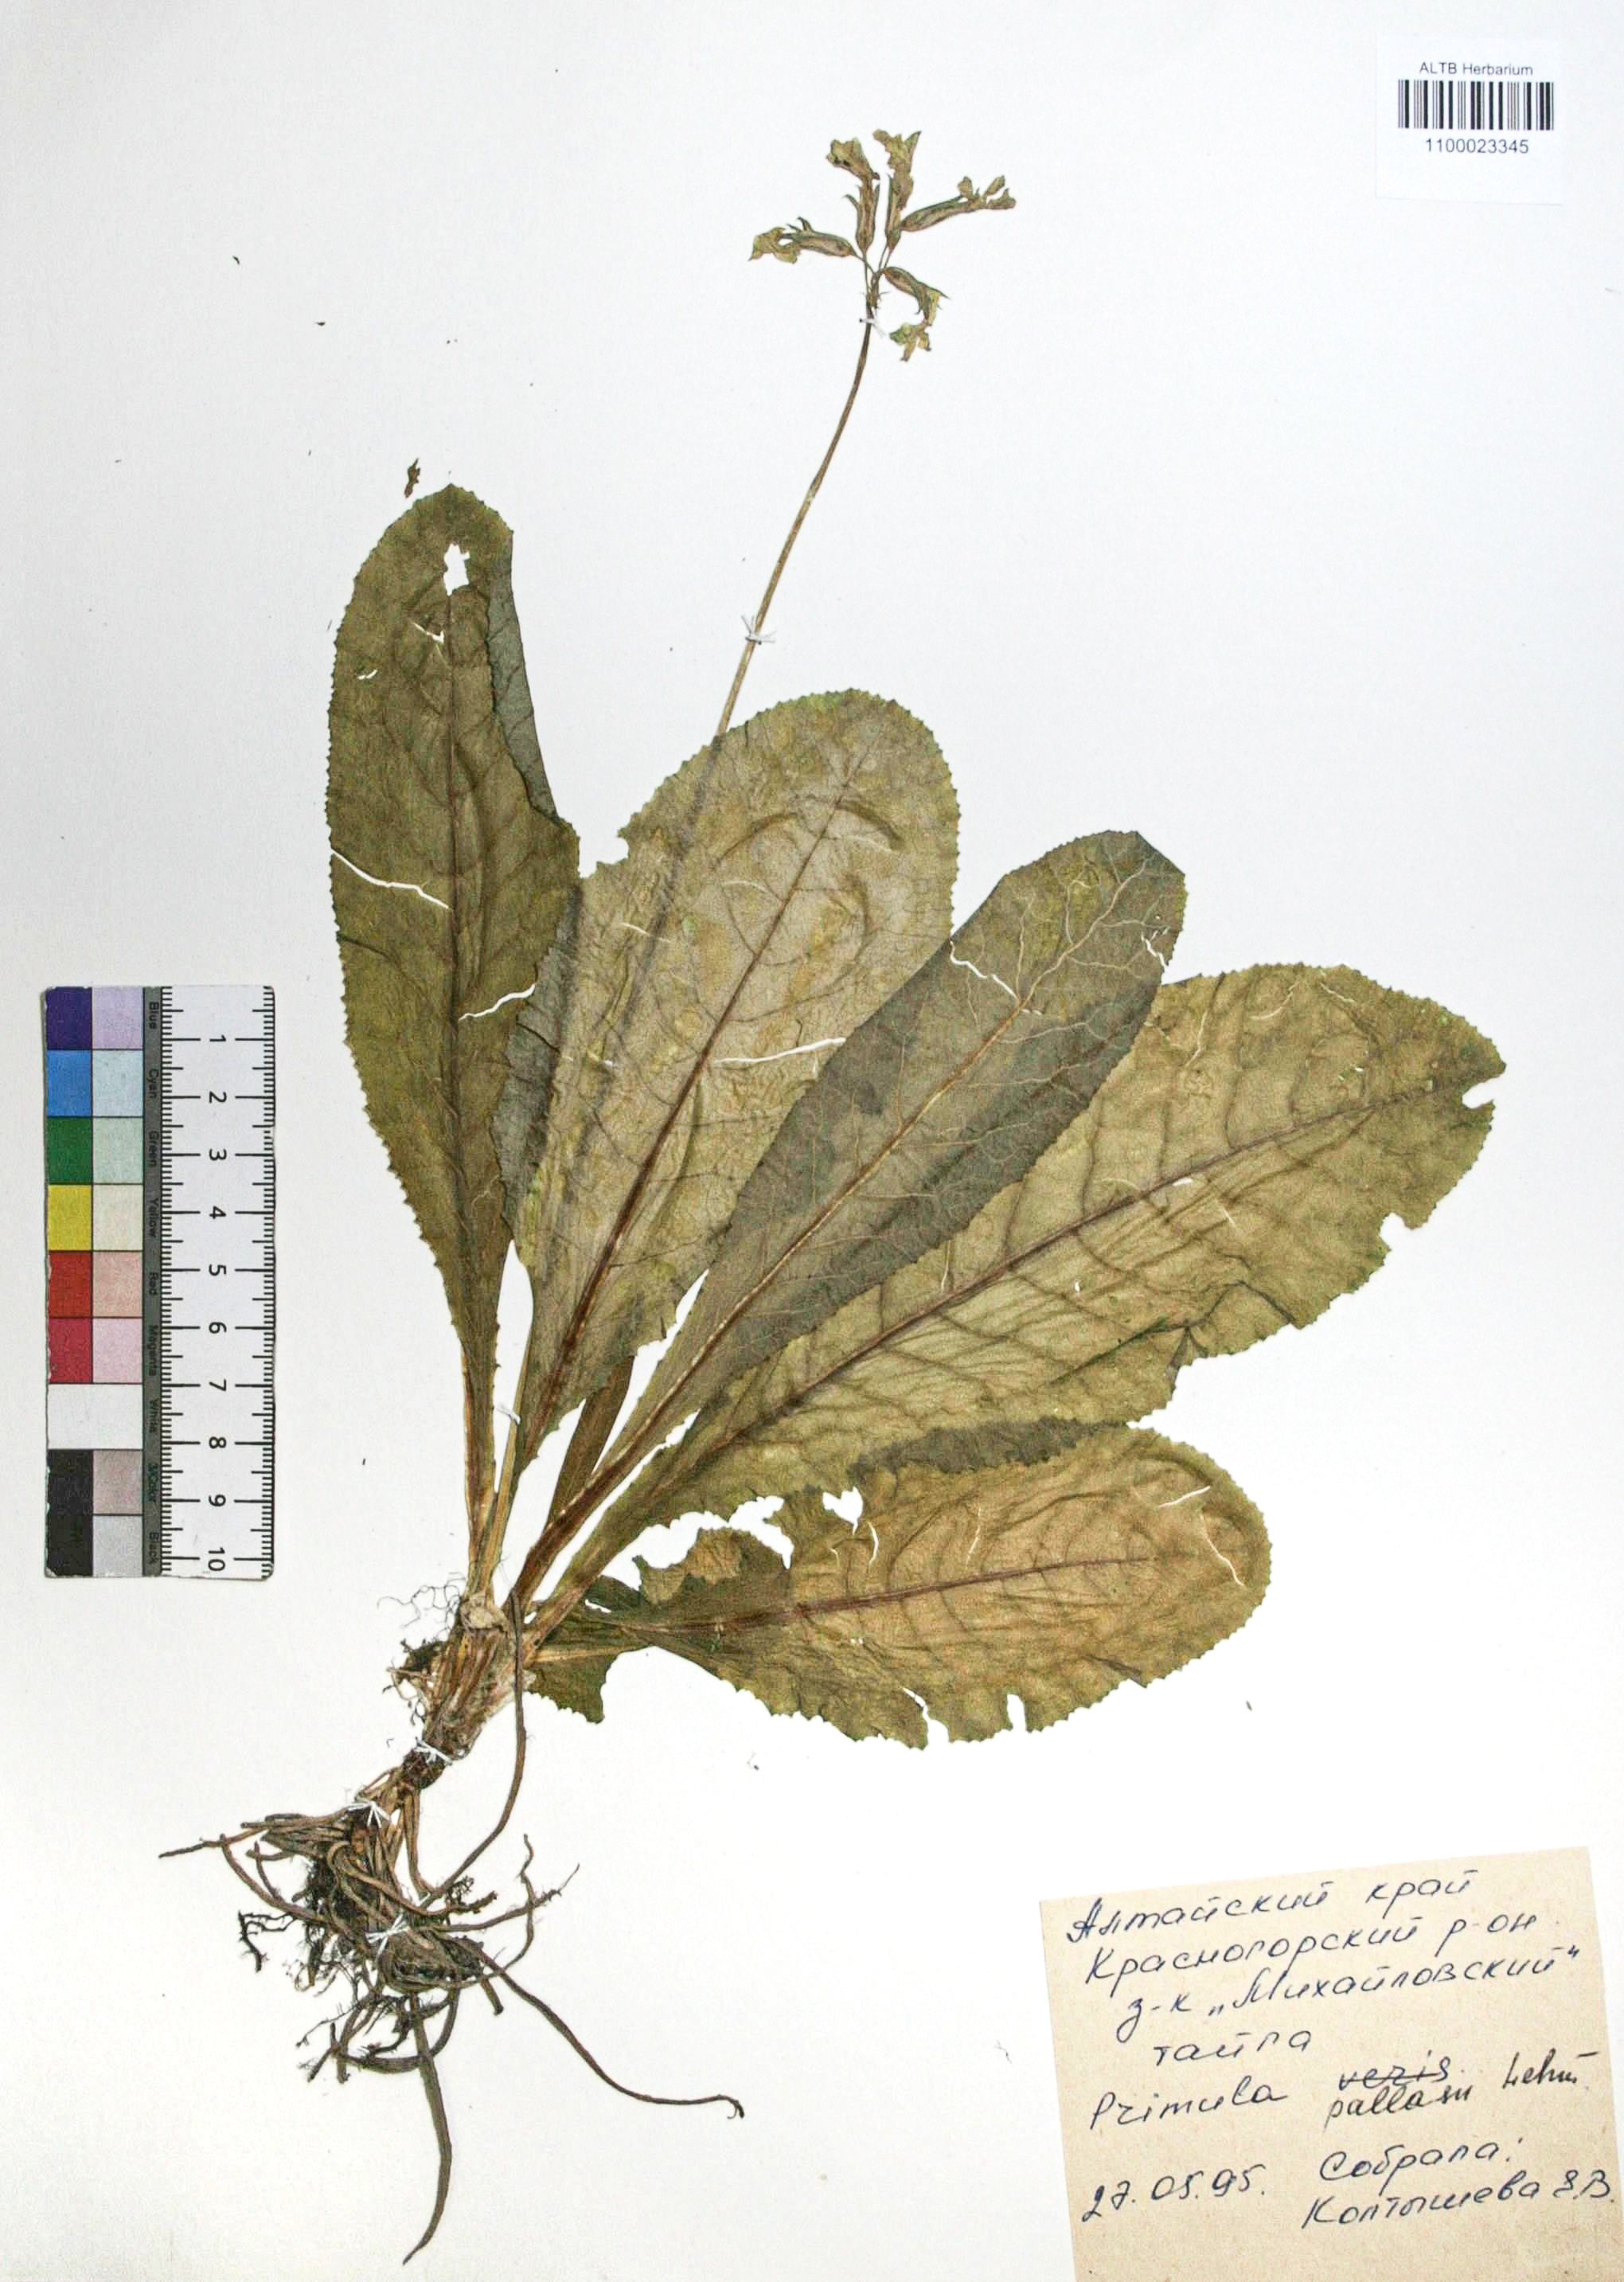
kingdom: Plantae
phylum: Tracheophyta
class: Magnoliopsida
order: Ericales
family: Primulaceae
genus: Primula
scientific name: Primula elatior
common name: Oxlip
